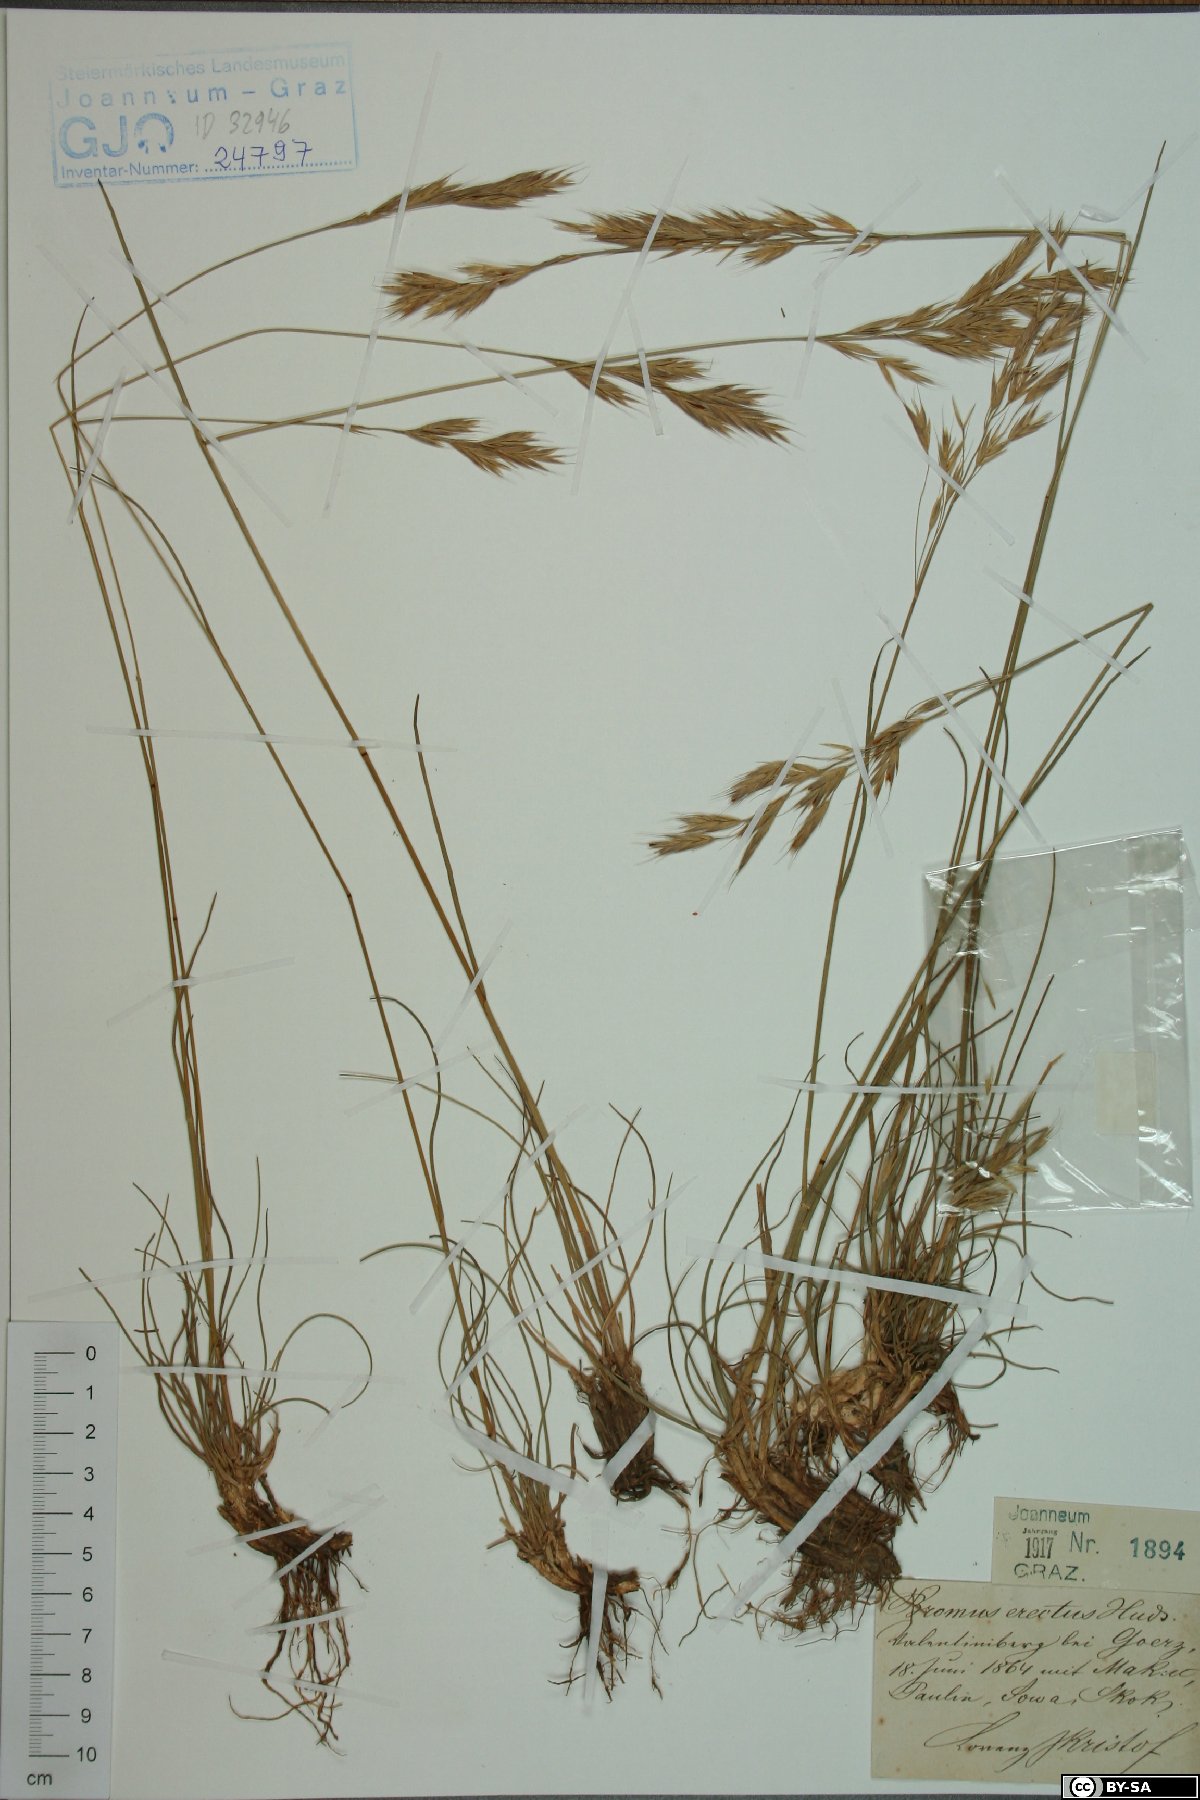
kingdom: Plantae
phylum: Tracheophyta
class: Liliopsida
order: Poales
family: Poaceae
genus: Bromus
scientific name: Bromus erectus
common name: Erect brome
